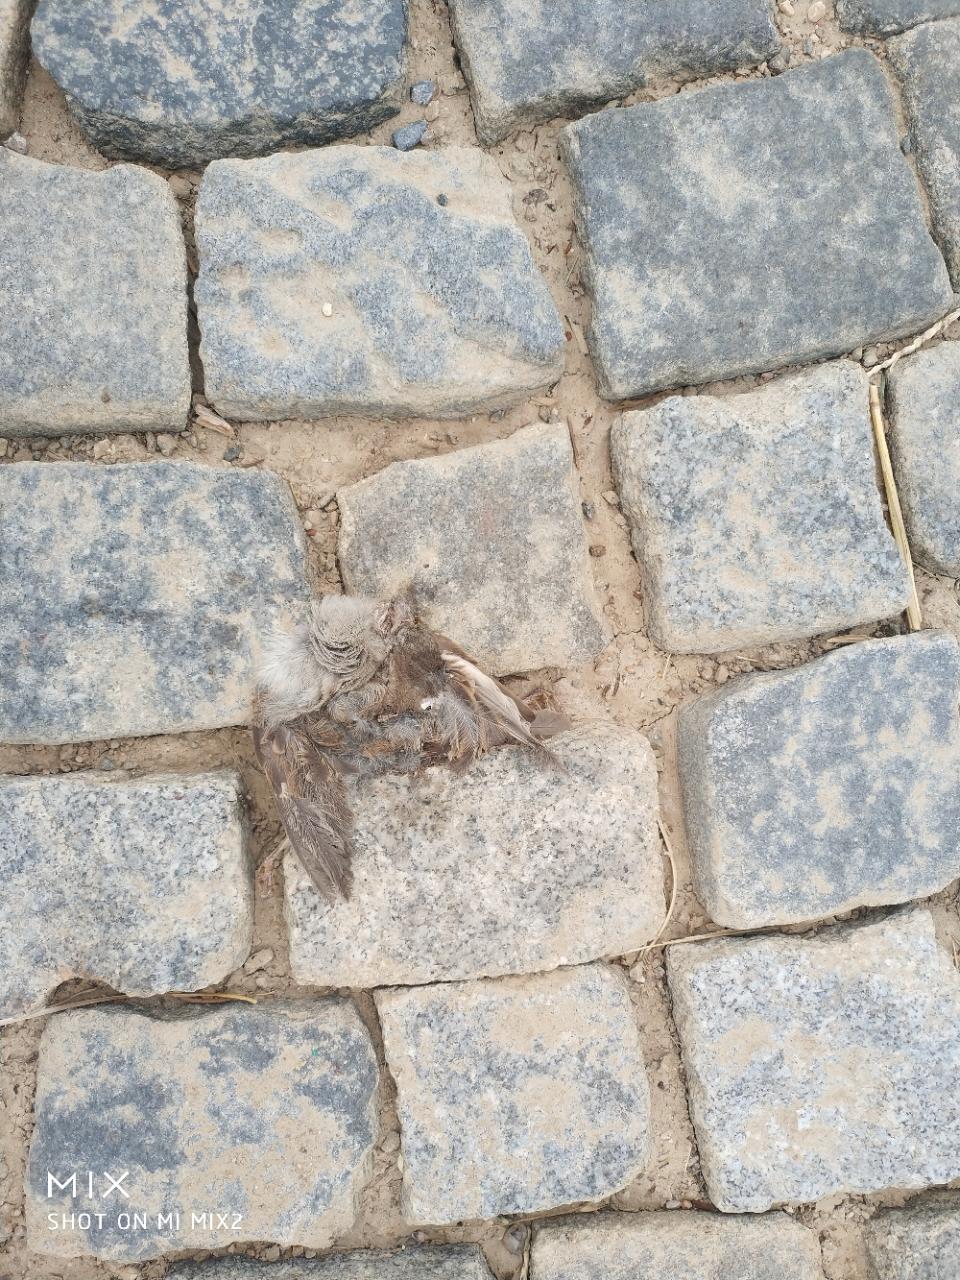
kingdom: Animalia
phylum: Chordata
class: Aves
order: Passeriformes
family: Passeridae
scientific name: Passeridae
